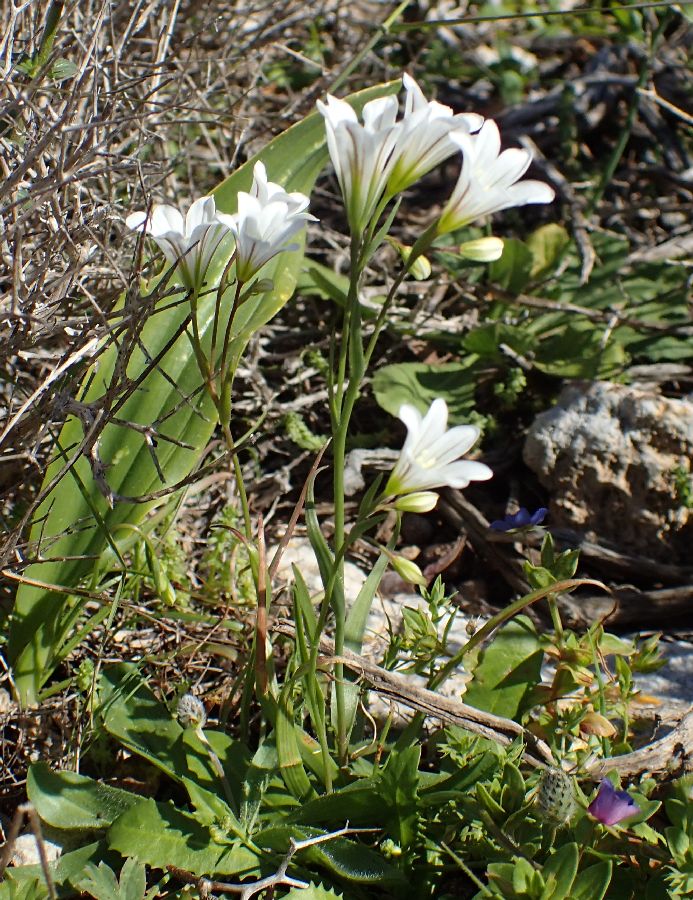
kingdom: Plantae
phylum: Tracheophyta
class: Liliopsida
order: Liliales
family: Liliaceae
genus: Gagea
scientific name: Gagea graeca
